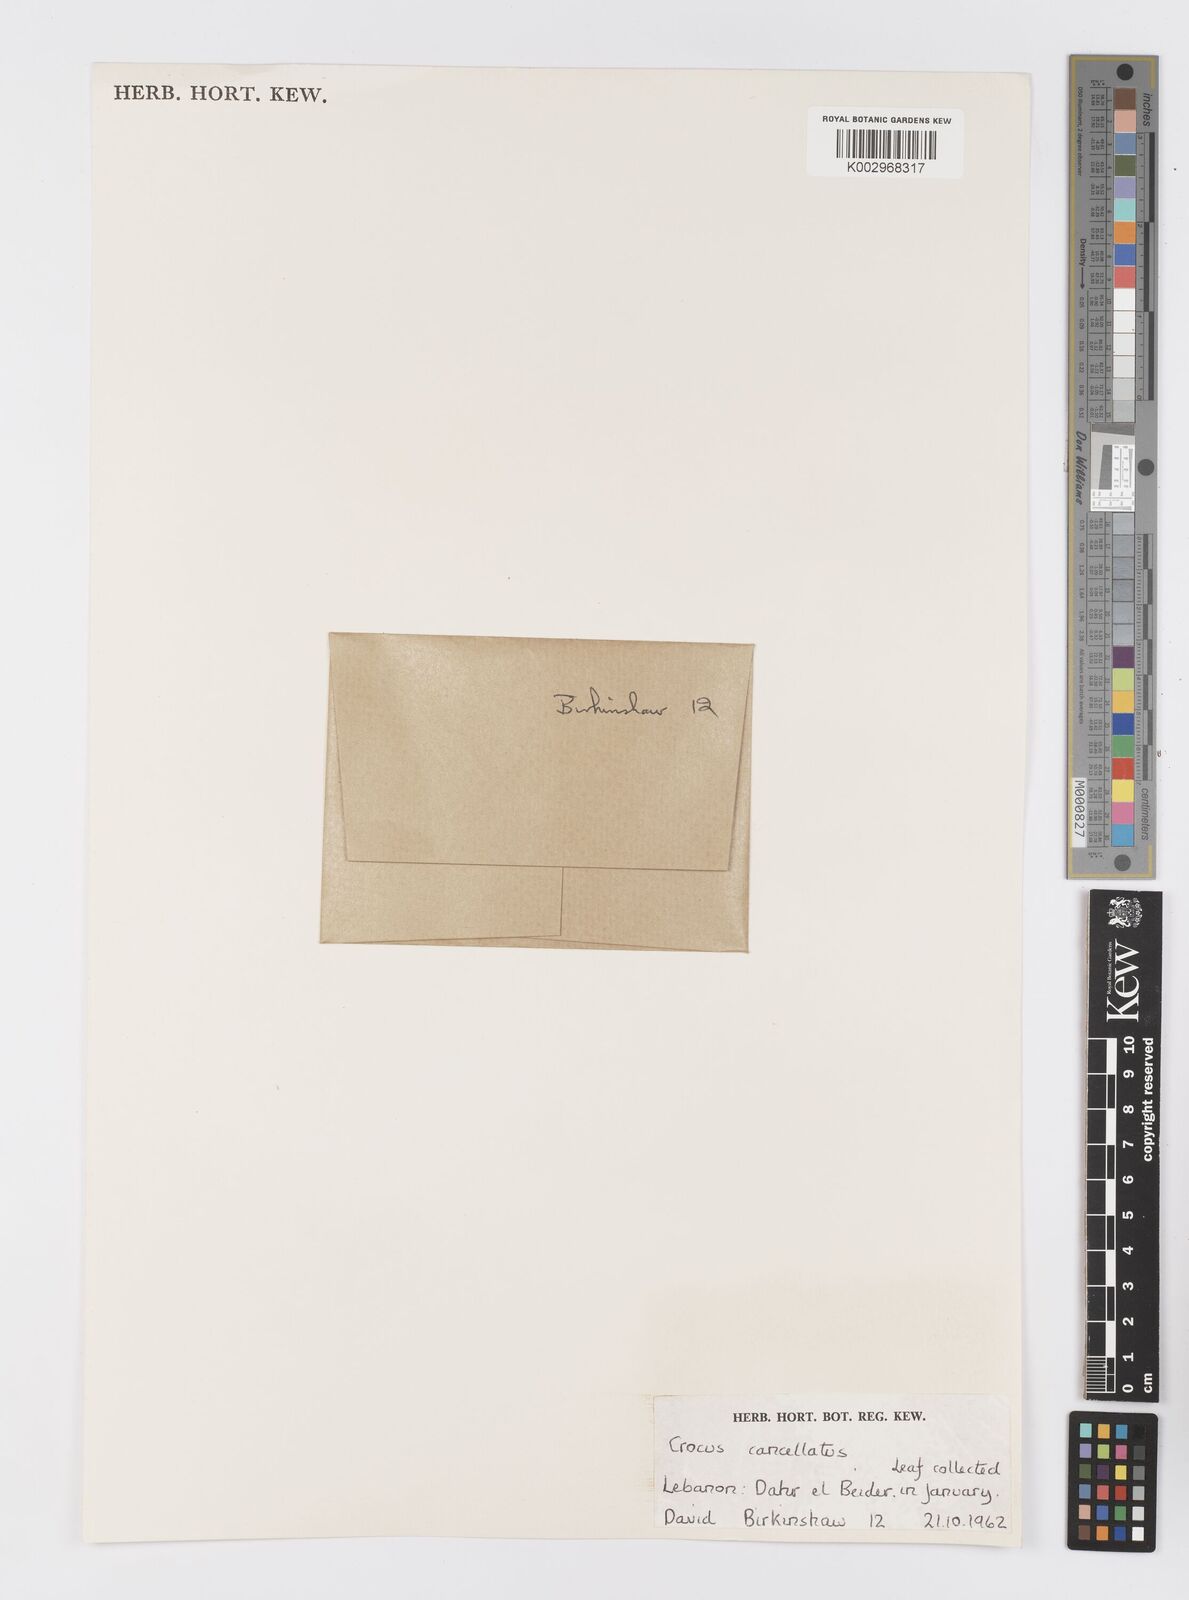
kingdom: Plantae
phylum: Tracheophyta
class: Liliopsida
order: Asparagales
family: Iridaceae
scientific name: Iridaceae
